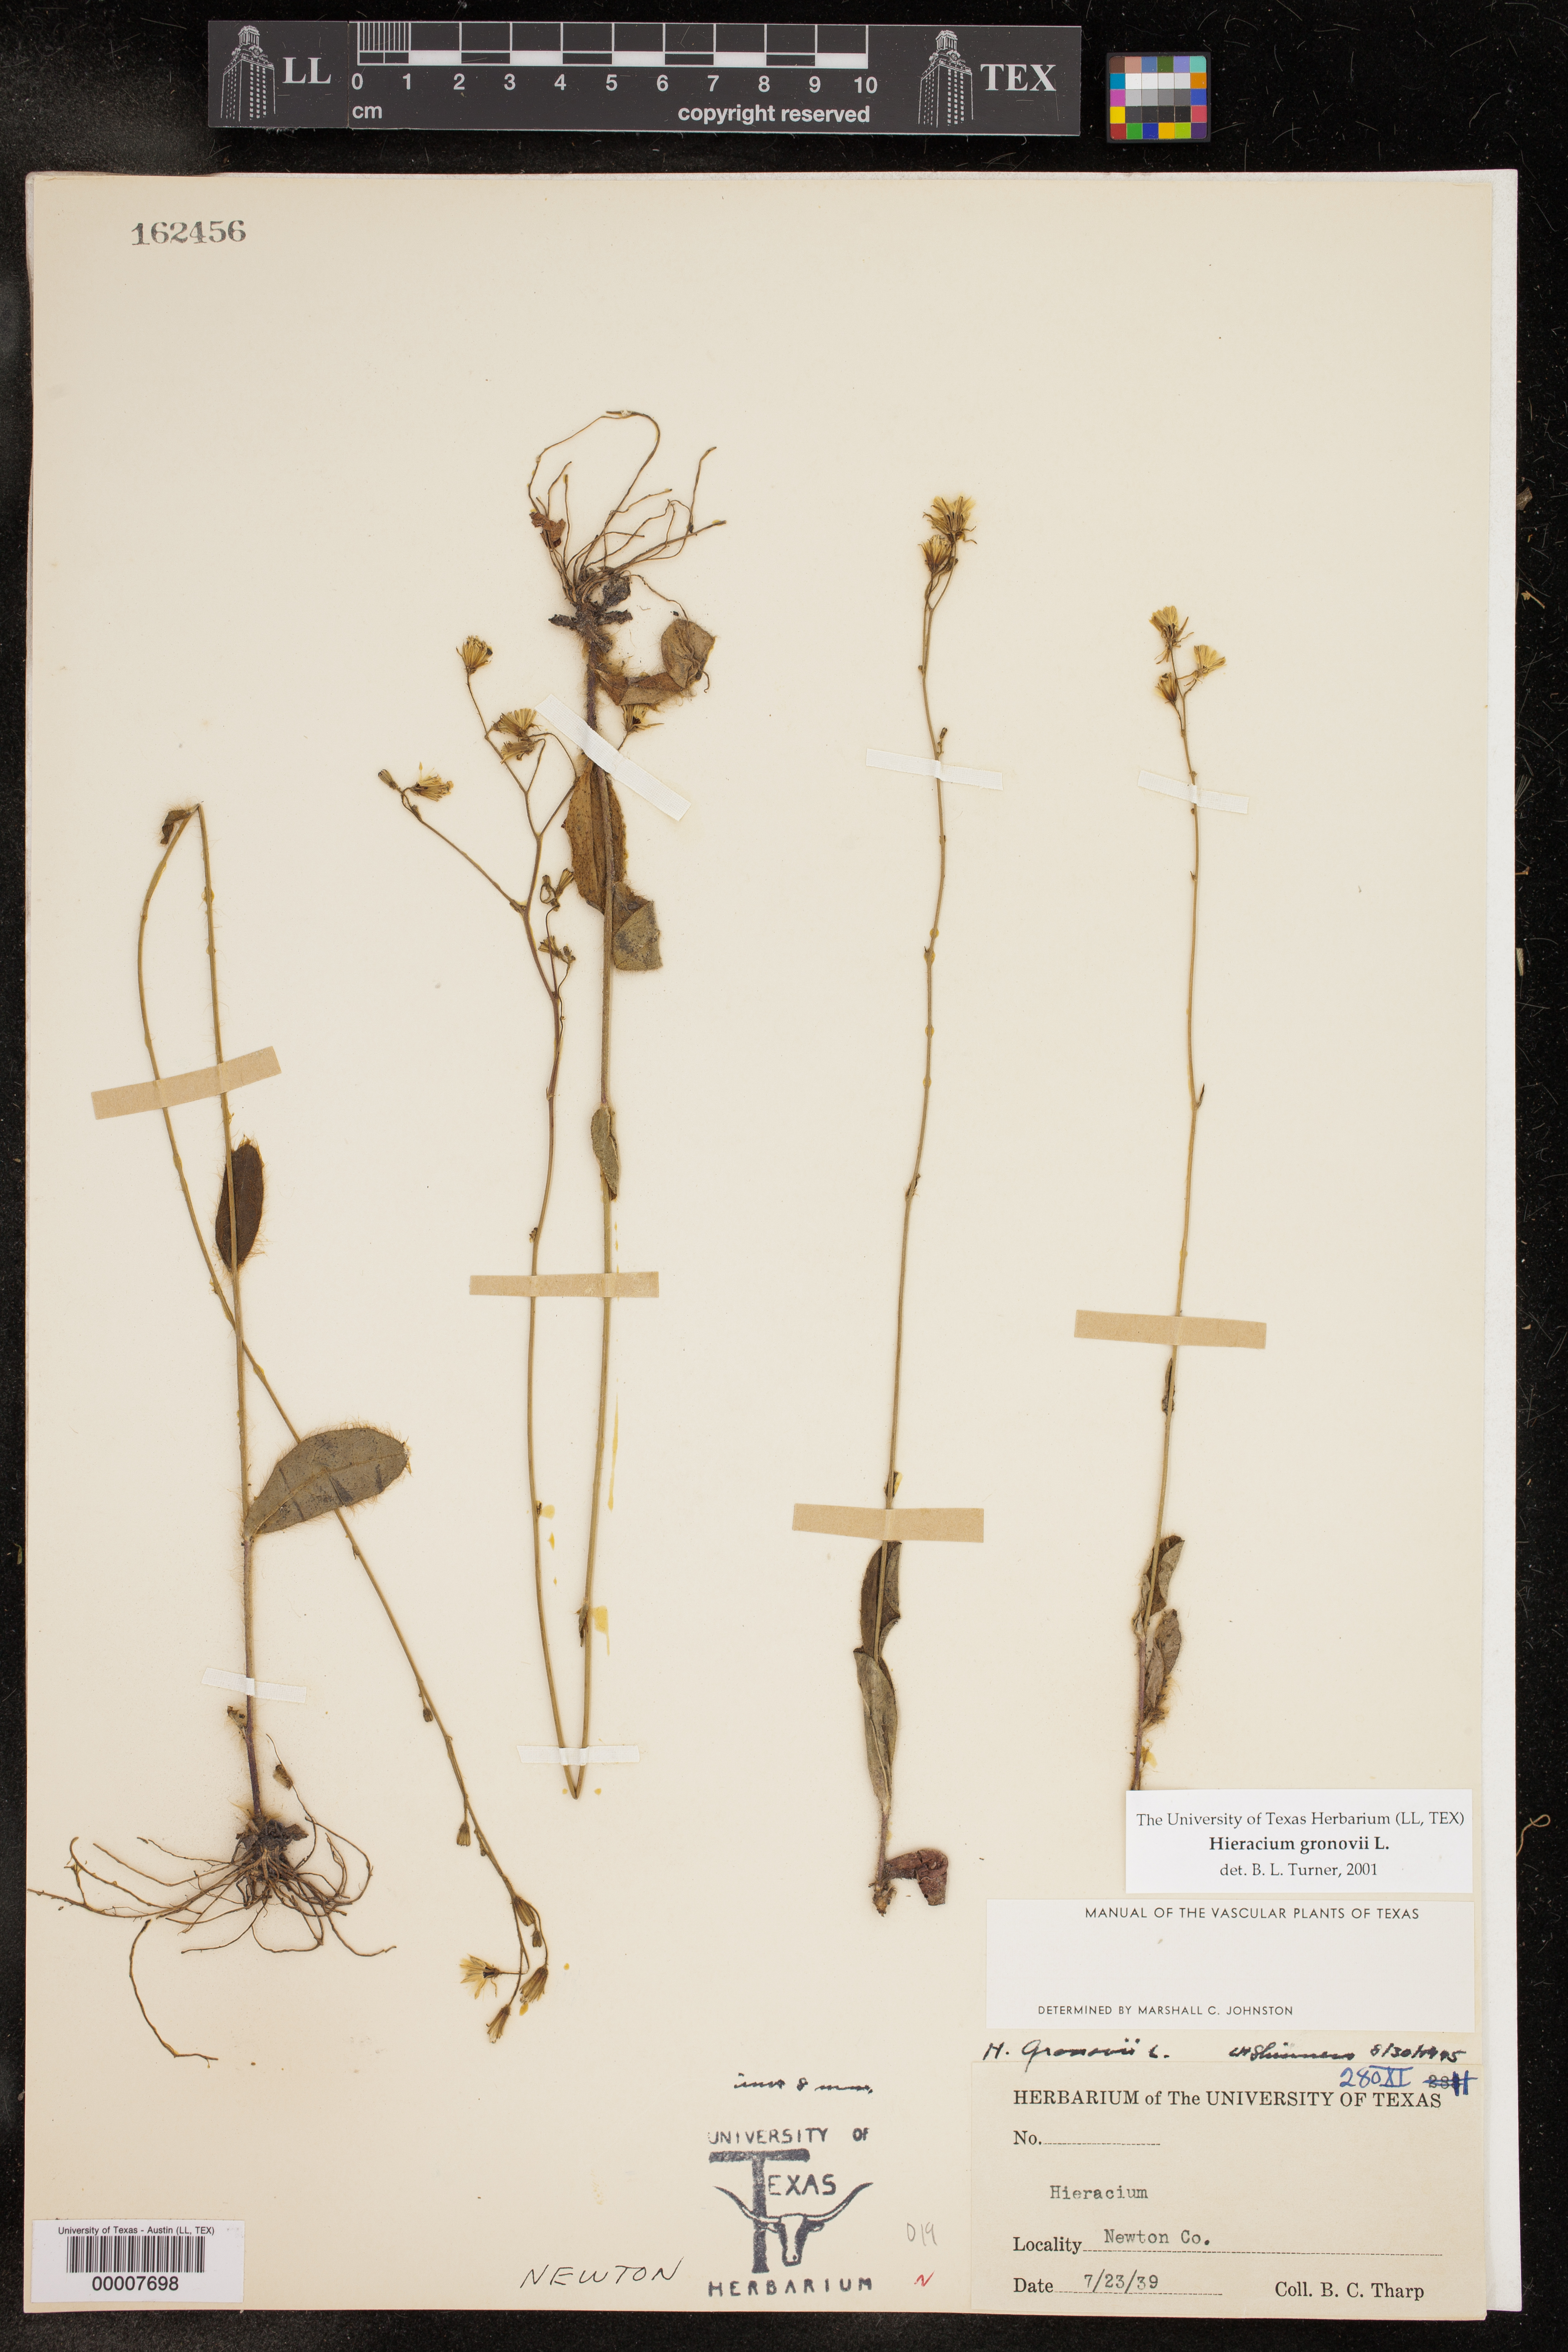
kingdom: Plantae
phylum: Tracheophyta
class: Magnoliopsida
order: Asterales
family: Asteraceae
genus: Hieracium
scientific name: Hieracium gronovii
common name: Beaked hawkweed
